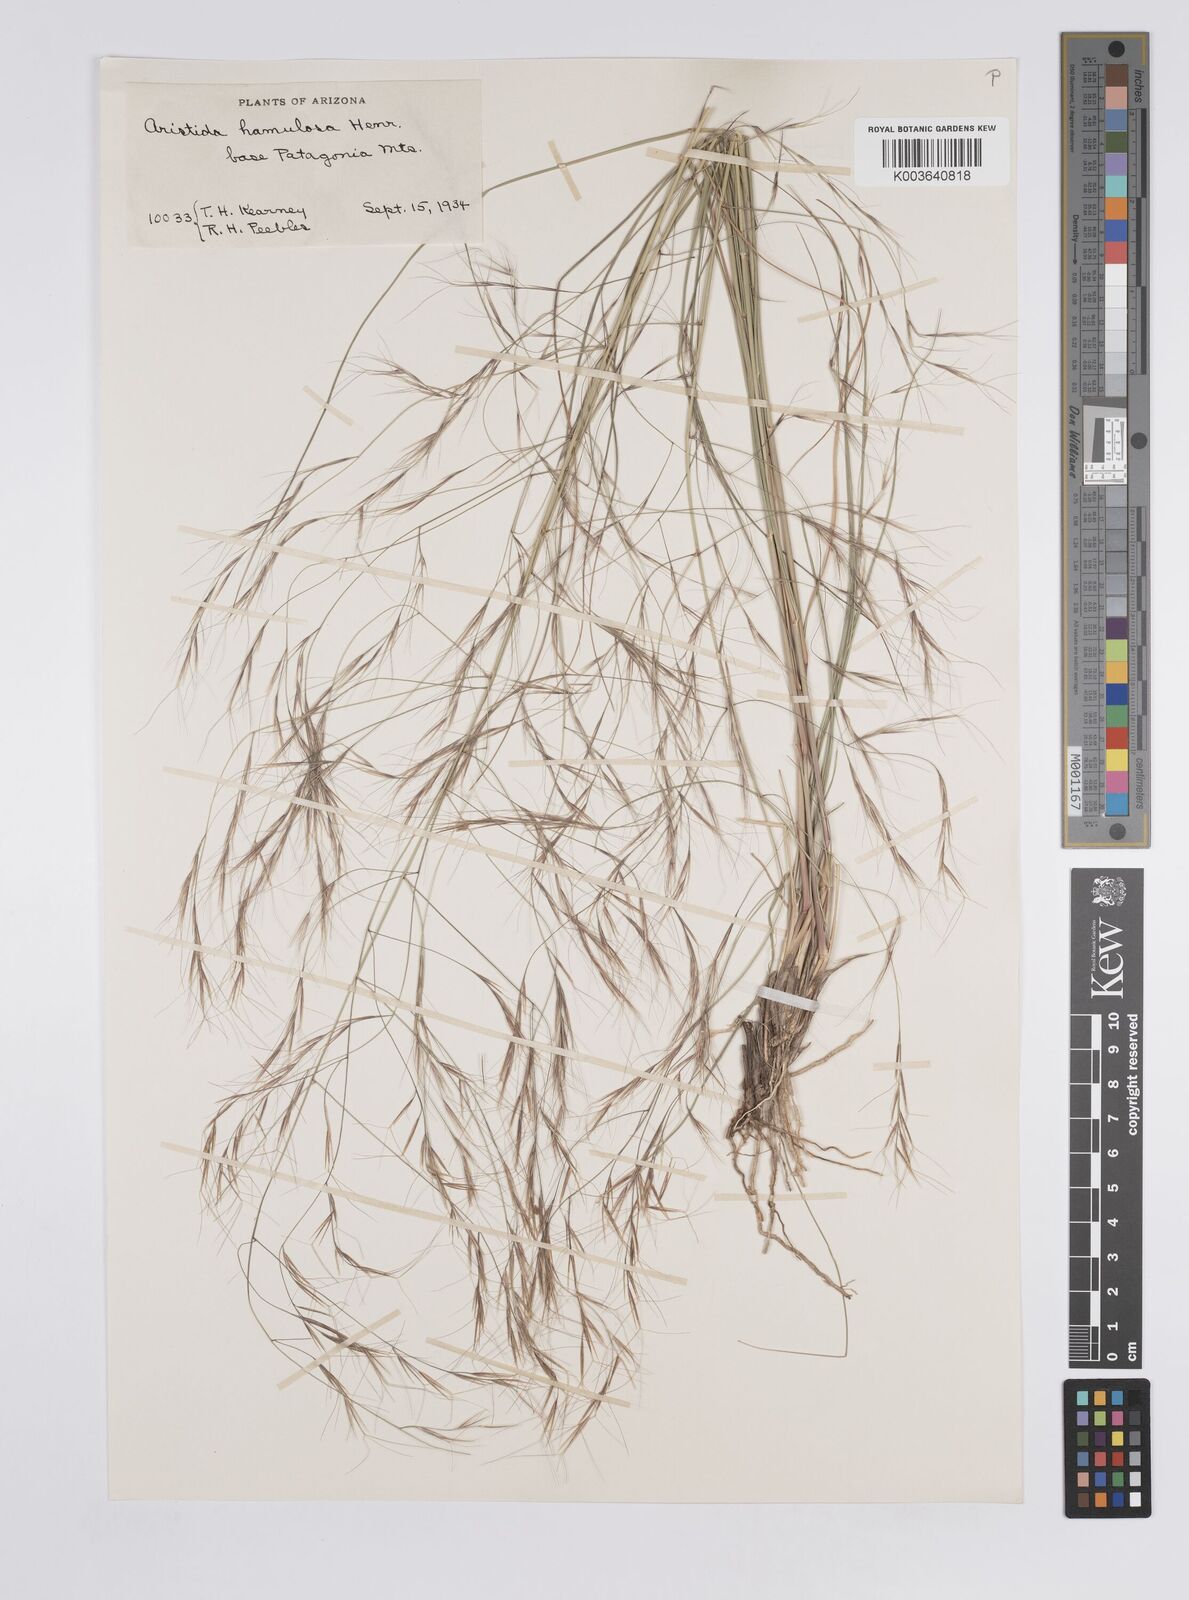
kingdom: Plantae
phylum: Tracheophyta
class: Liliopsida
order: Poales
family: Poaceae
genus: Aristida
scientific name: Aristida hamulosa
